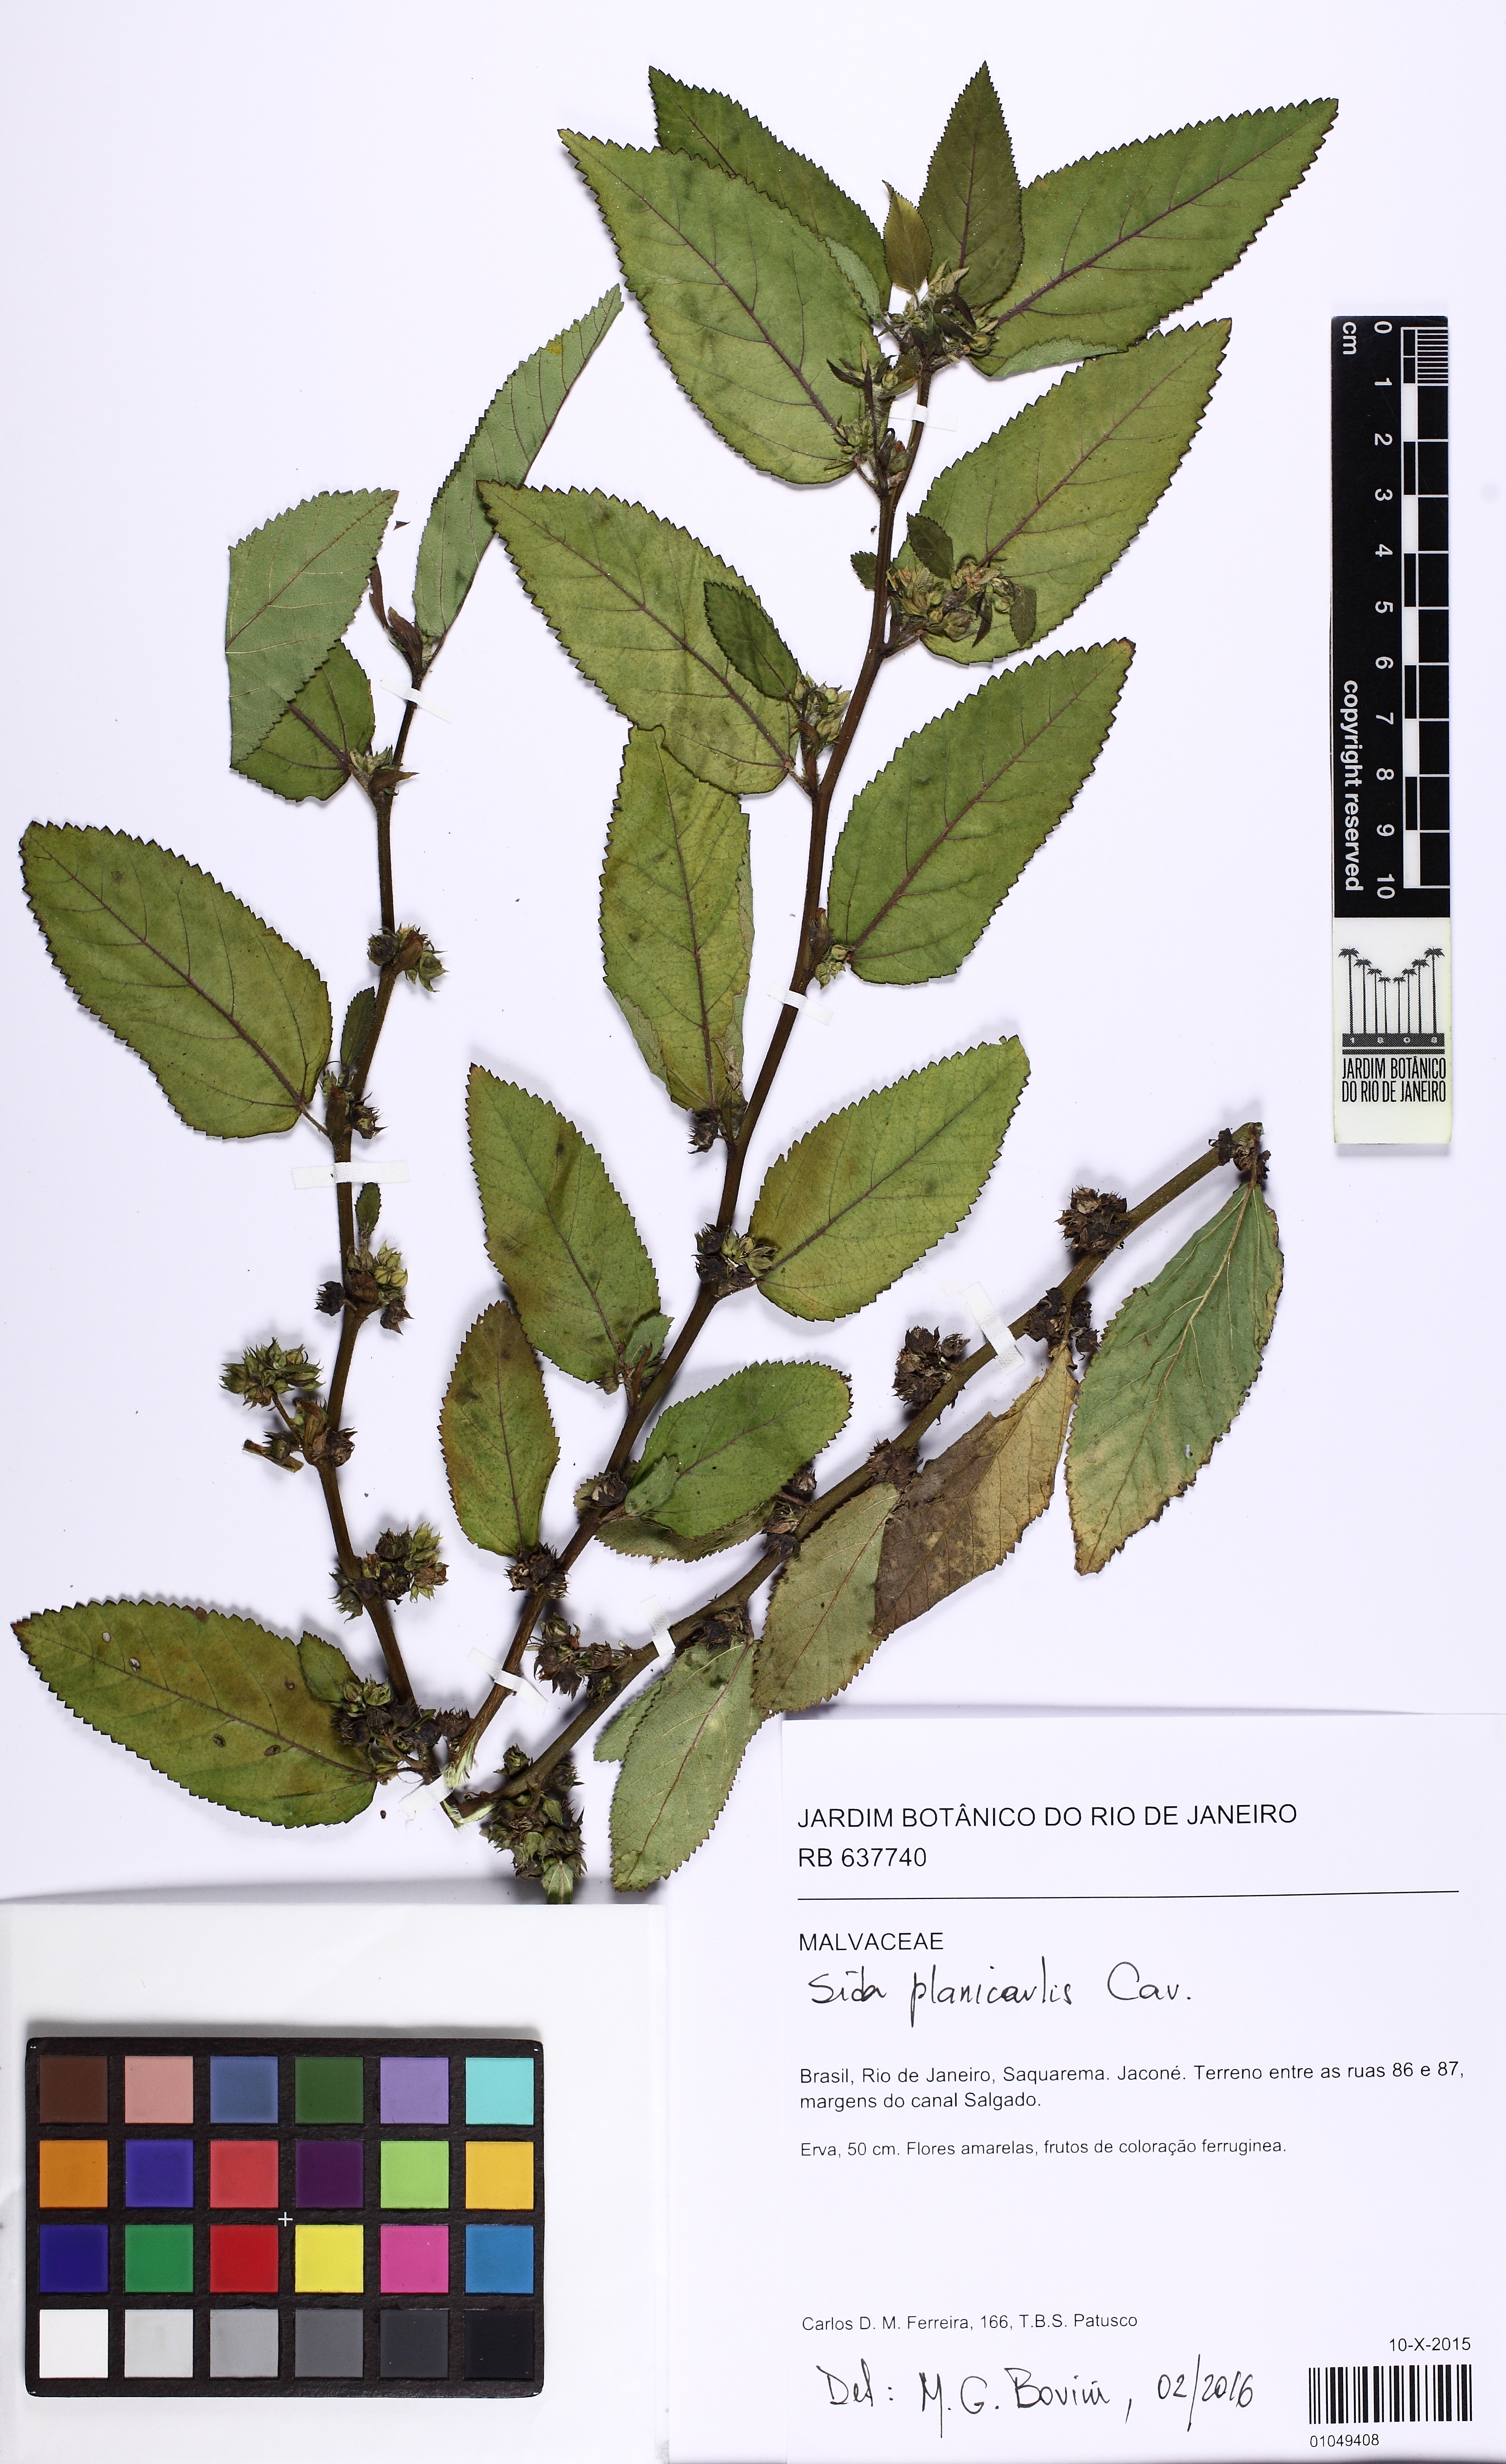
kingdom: Plantae
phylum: Tracheophyta
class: Magnoliopsida
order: Malvales
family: Malvaceae
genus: Sida
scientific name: Sida planicaulis
